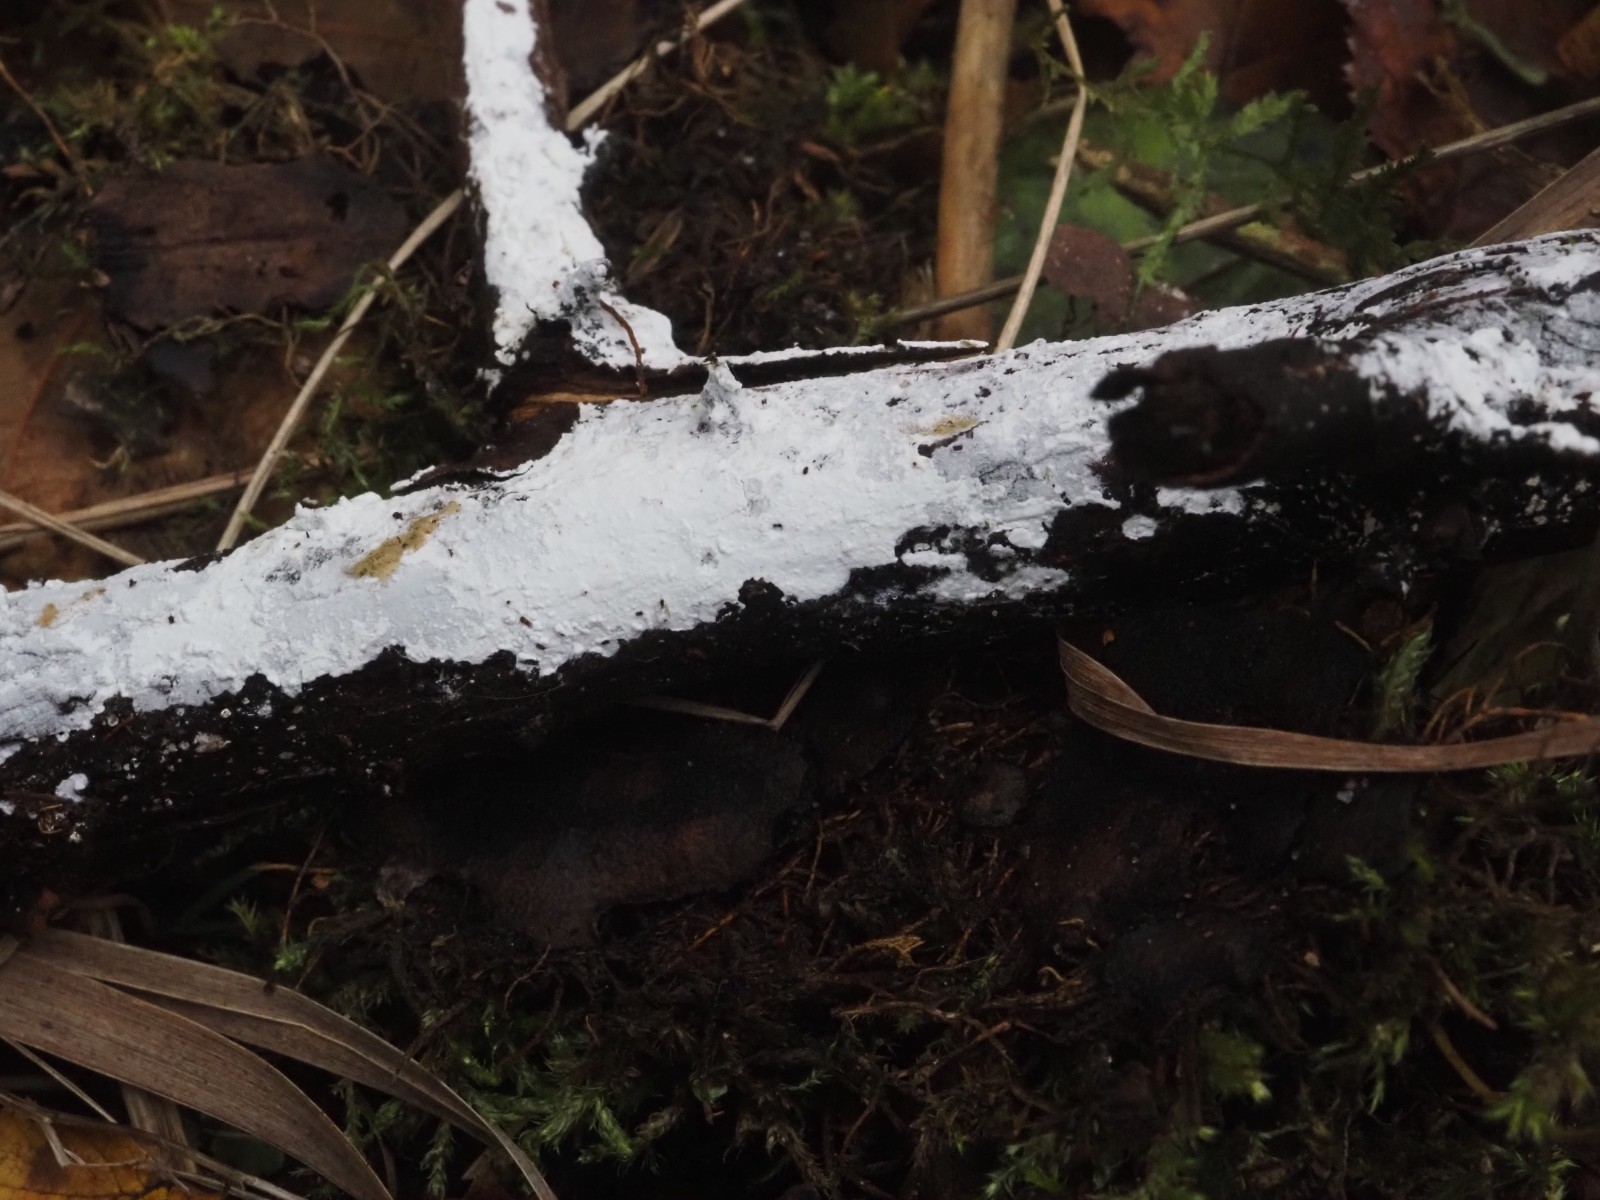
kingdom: Fungi
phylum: Basidiomycota
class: Agaricomycetes
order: Hymenochaetales
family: Hyphodontiaceae
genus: Hyphodontia
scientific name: Hyphodontia alutaria
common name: flaskerenser-nålehinde
